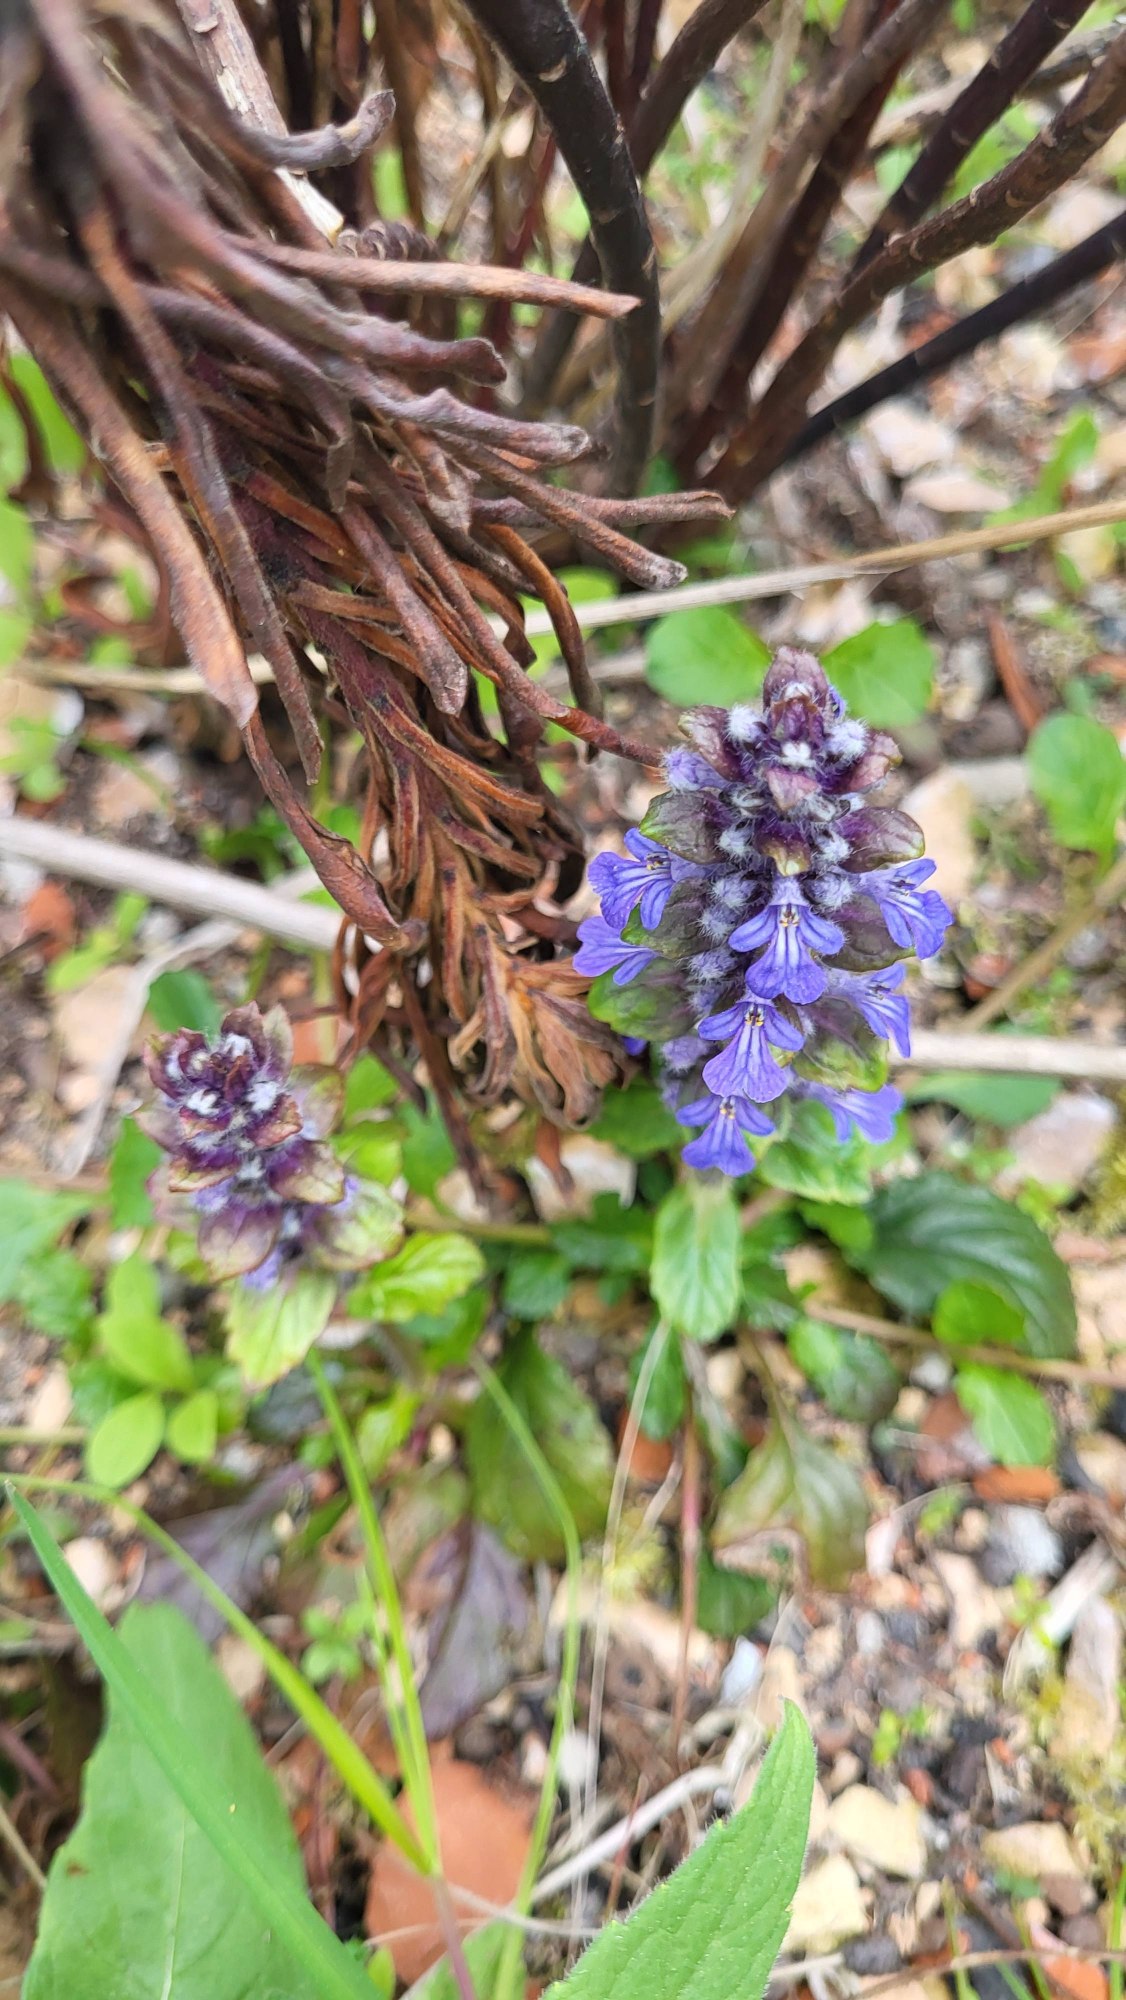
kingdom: Plantae
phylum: Tracheophyta
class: Magnoliopsida
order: Lamiales
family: Lamiaceae
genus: Ajuga
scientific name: Ajuga reptans
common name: Krybende læbeløs
